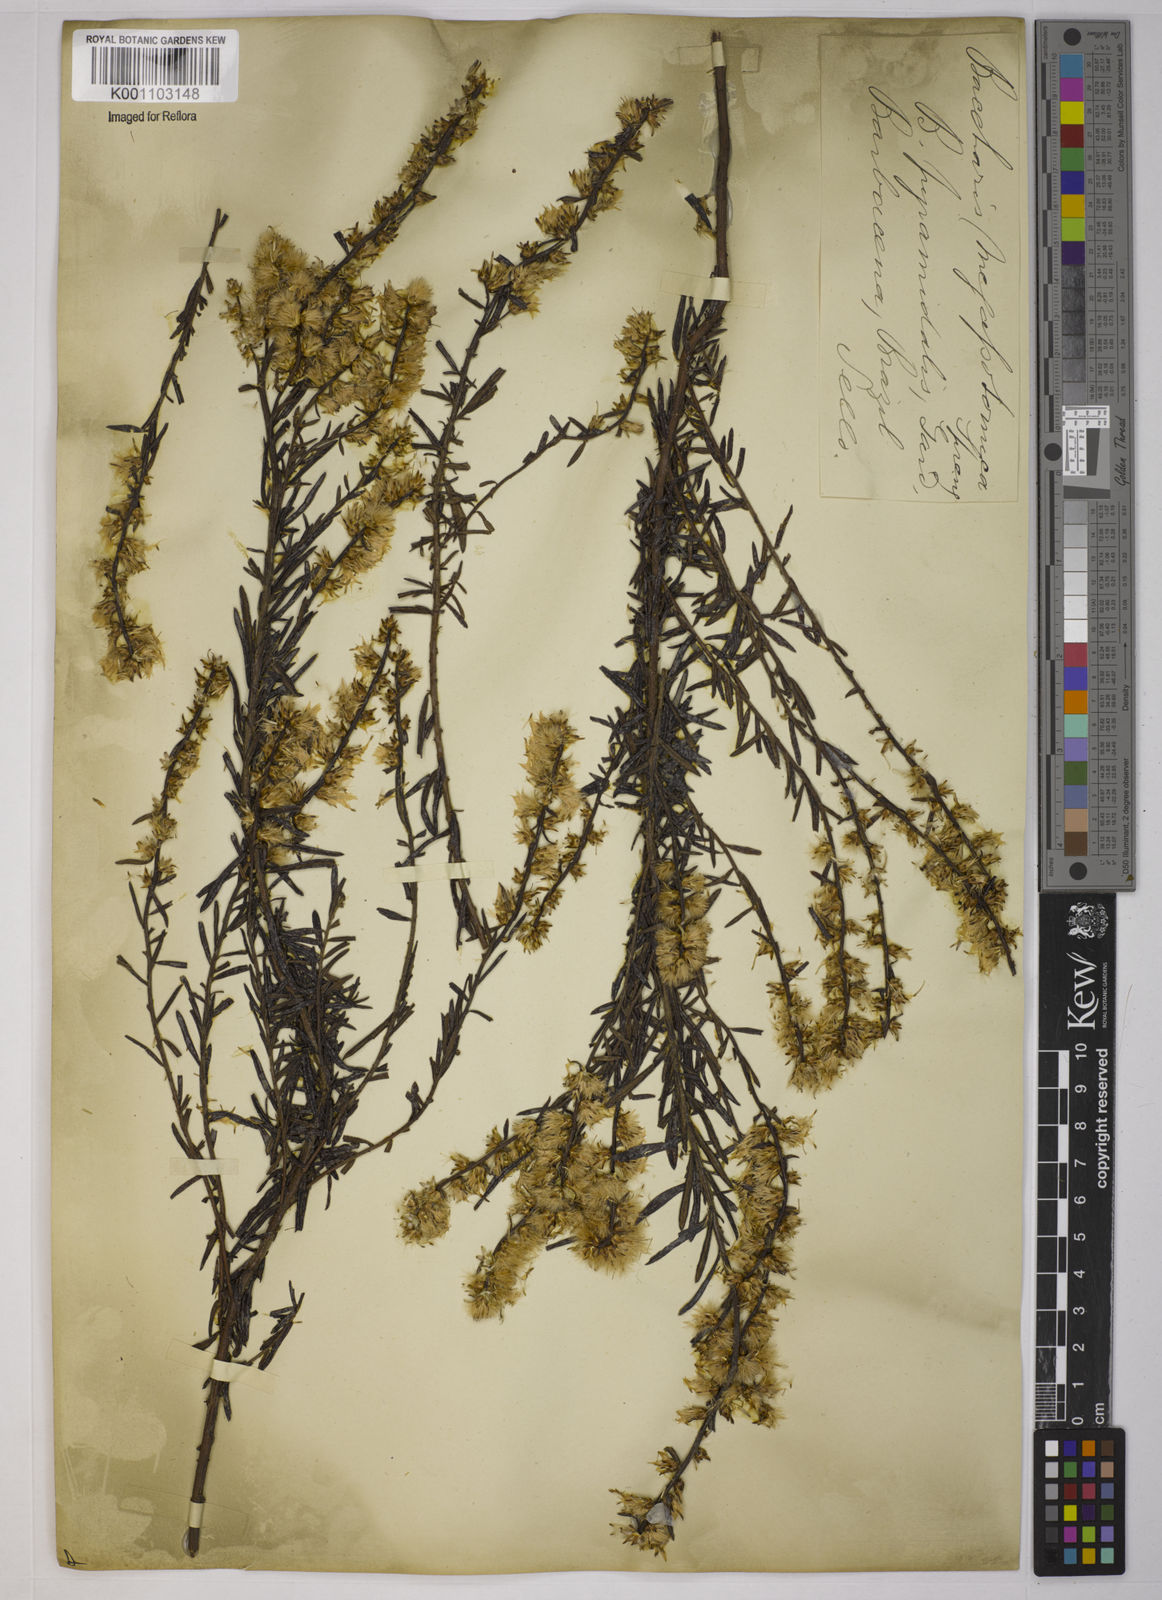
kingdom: Plantae
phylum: Tracheophyta
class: Magnoliopsida
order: Asterales
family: Asteraceae
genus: Baccharis
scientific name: Baccharis megapotamica
